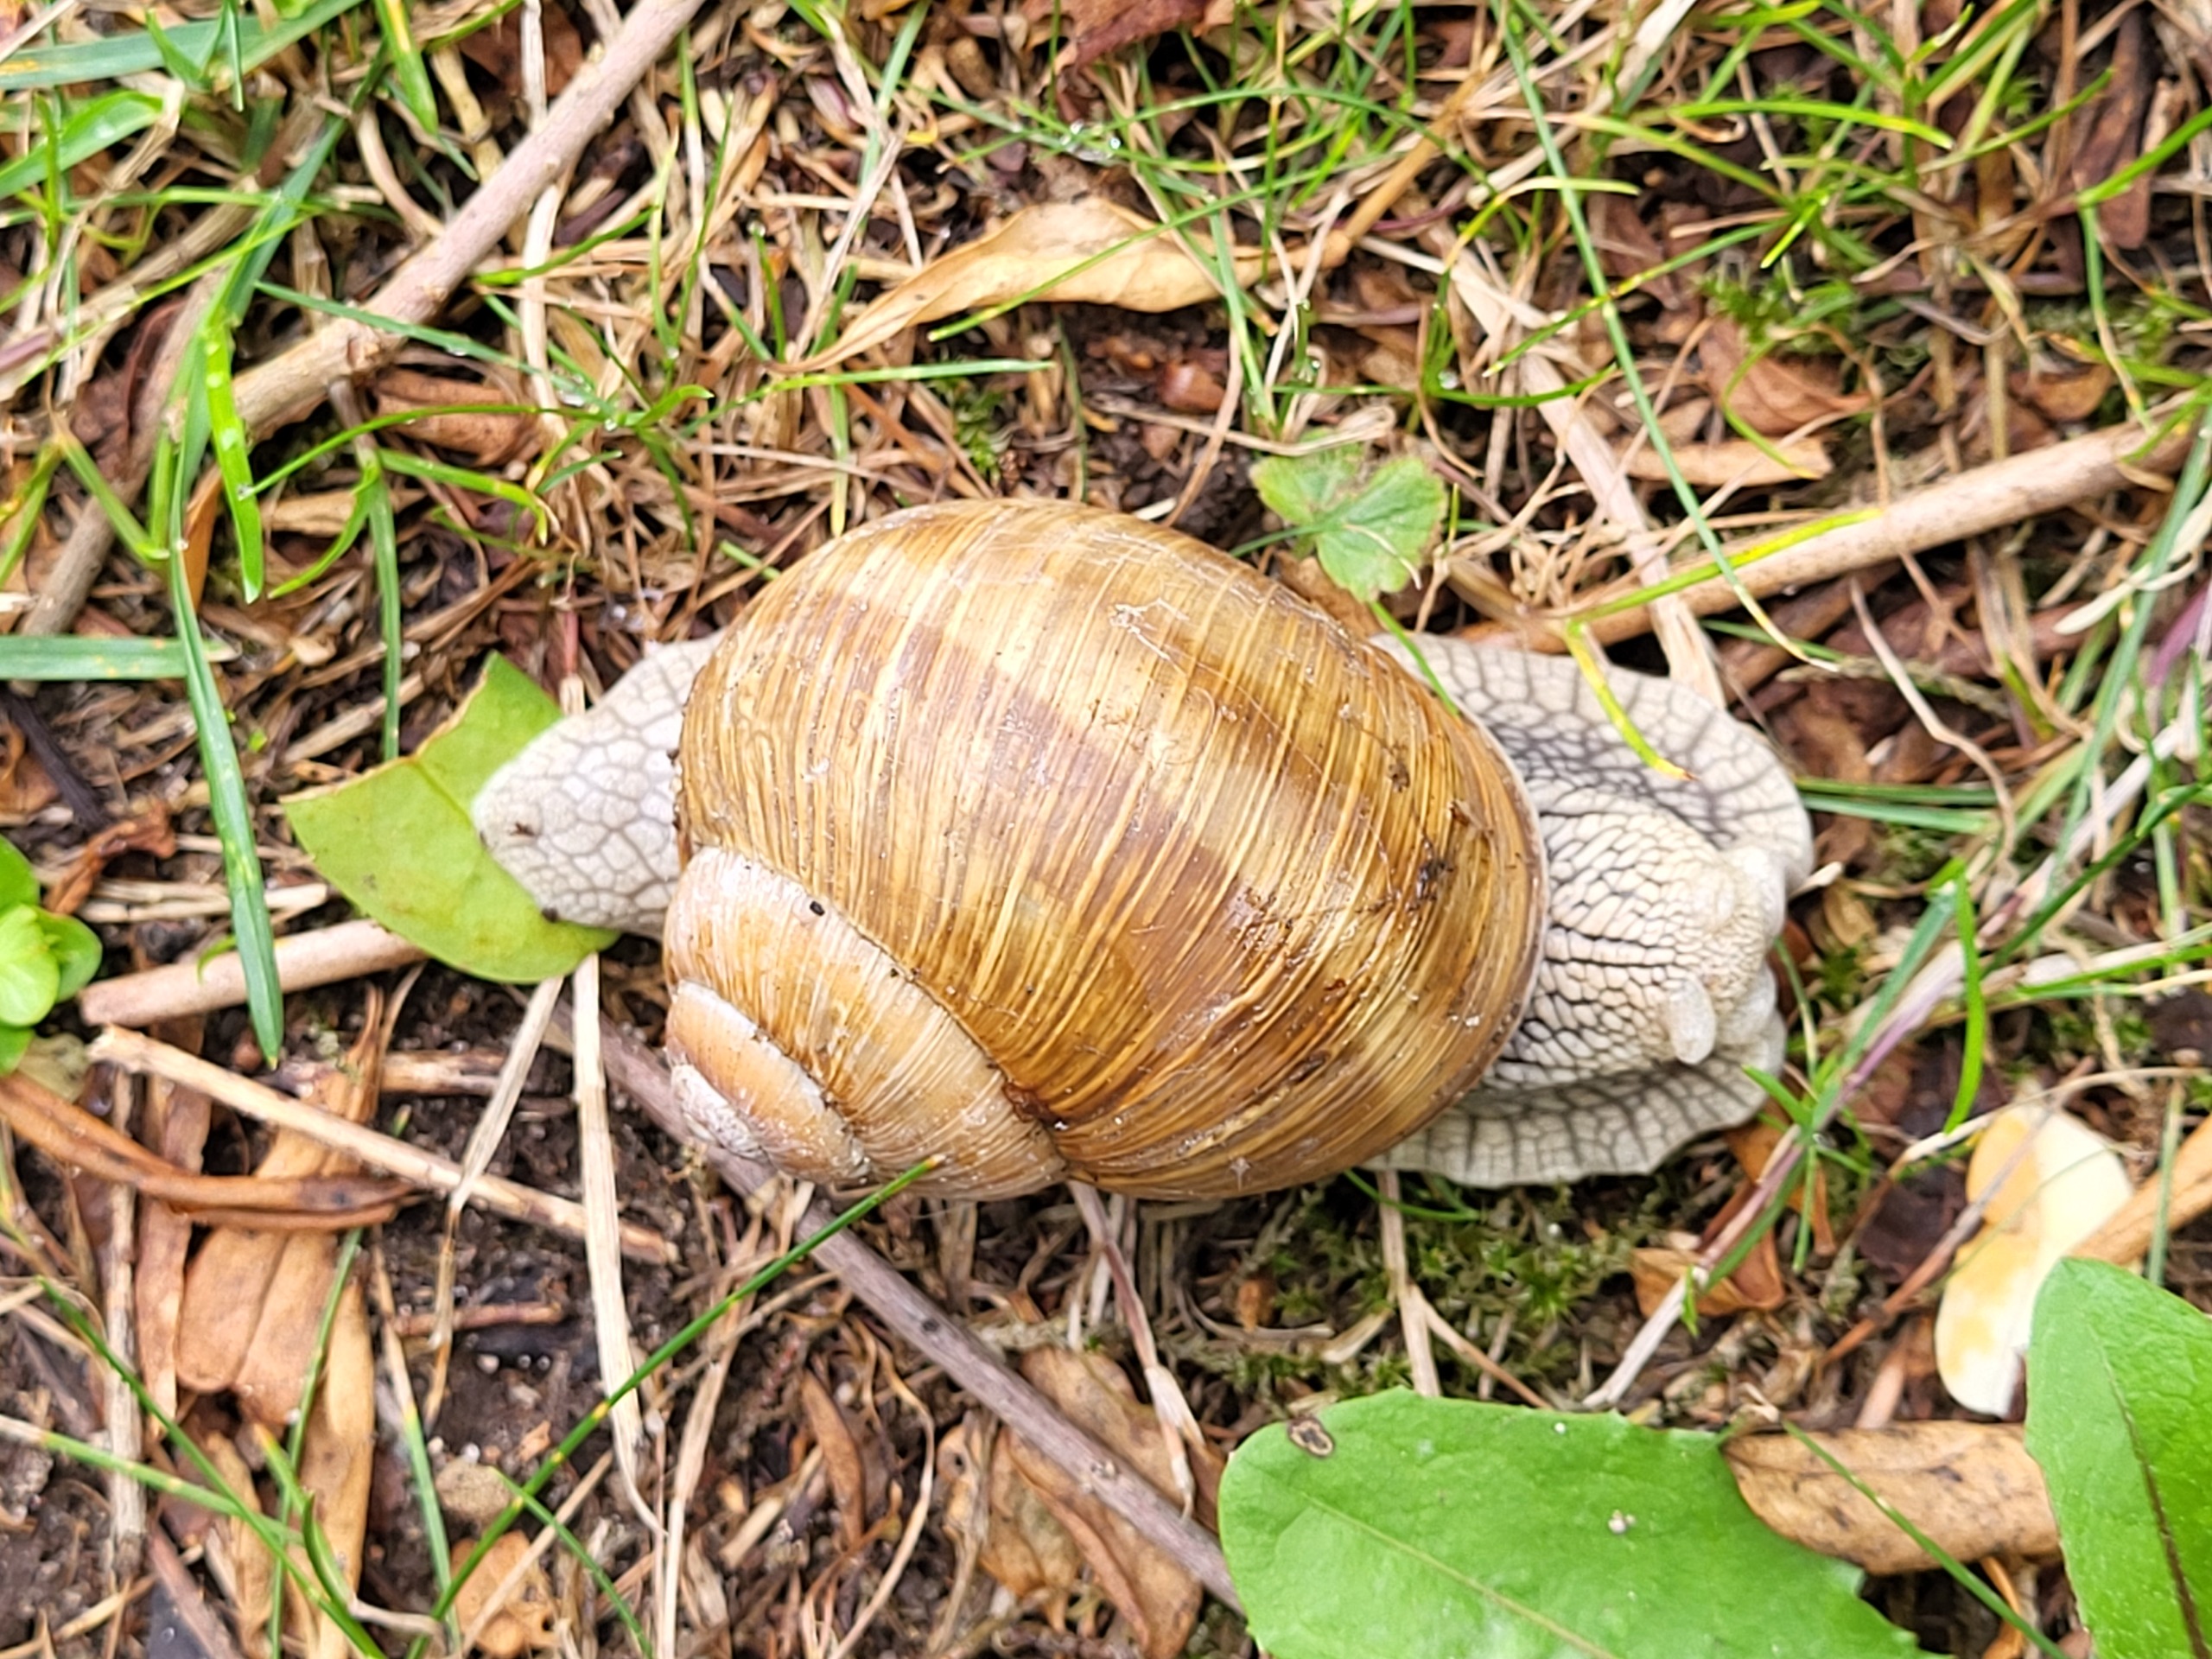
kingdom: Animalia
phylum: Mollusca
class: Gastropoda
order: Stylommatophora
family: Helicidae
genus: Helix
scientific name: Helix pomatia
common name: Vinbjergsnegl
